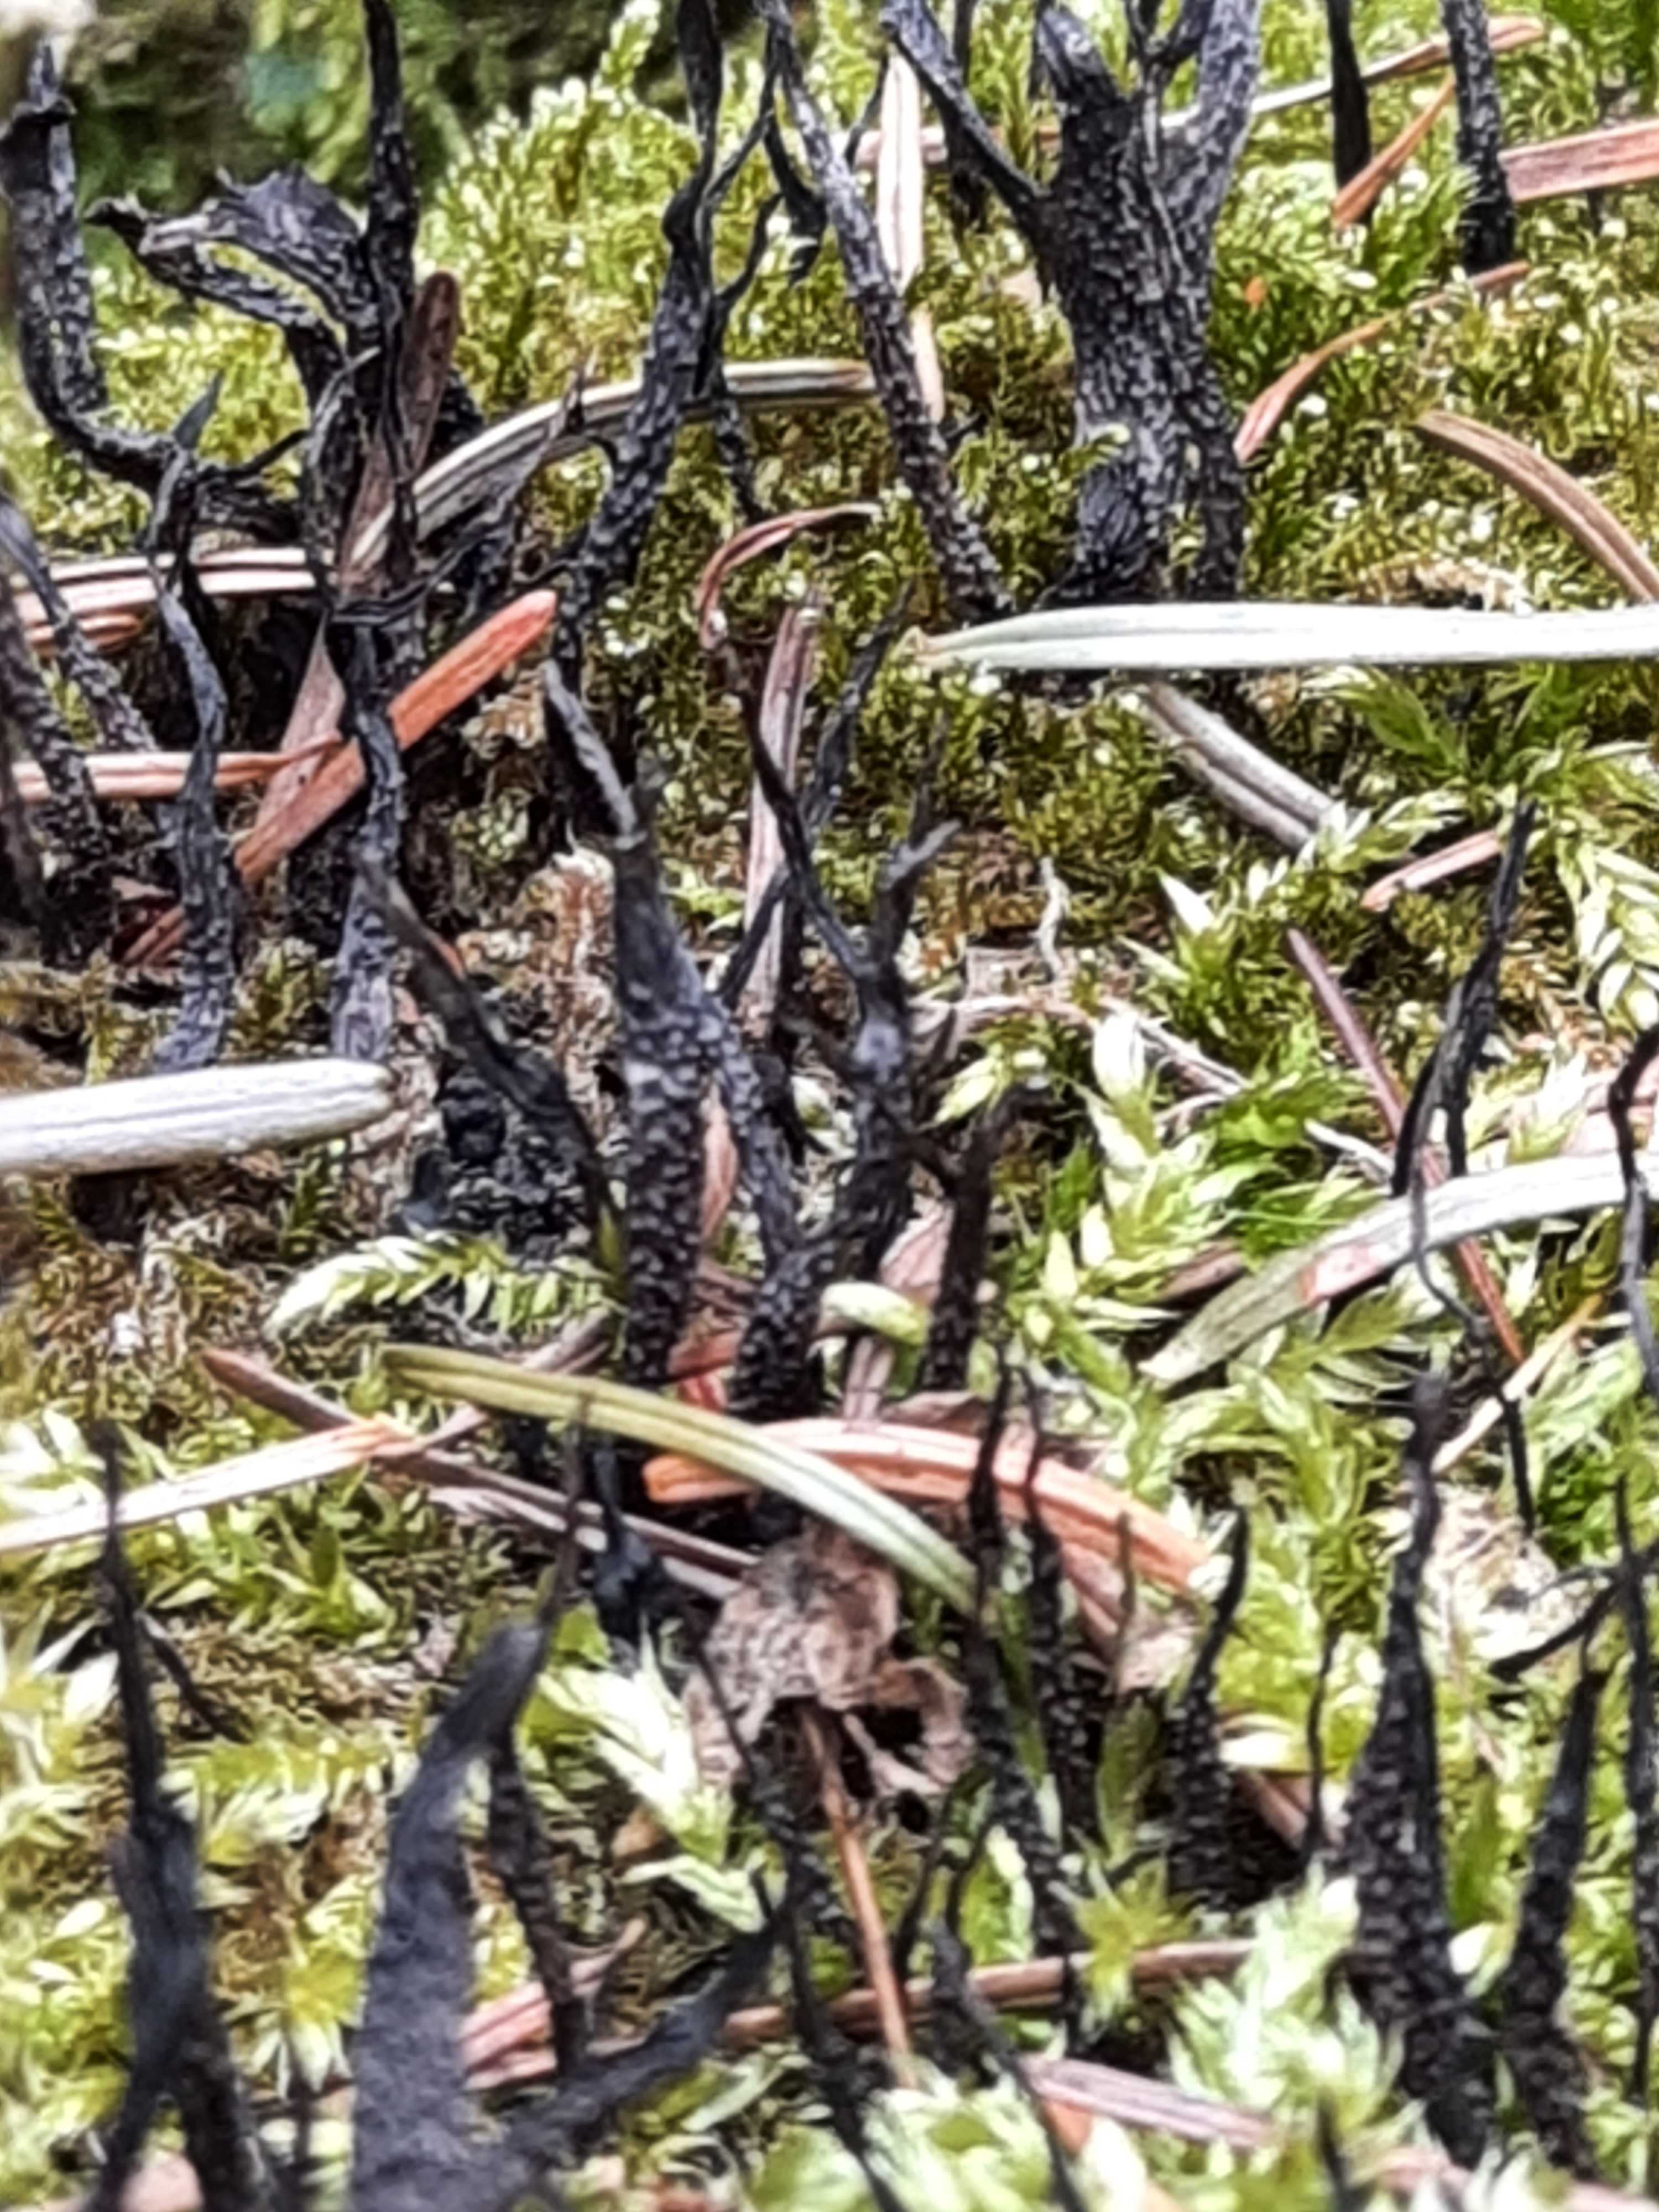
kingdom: Fungi
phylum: Ascomycota
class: Sordariomycetes
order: Xylariales
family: Xylariaceae
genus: Xylaria
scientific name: Xylaria hypoxylon
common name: grenet stødsvamp
